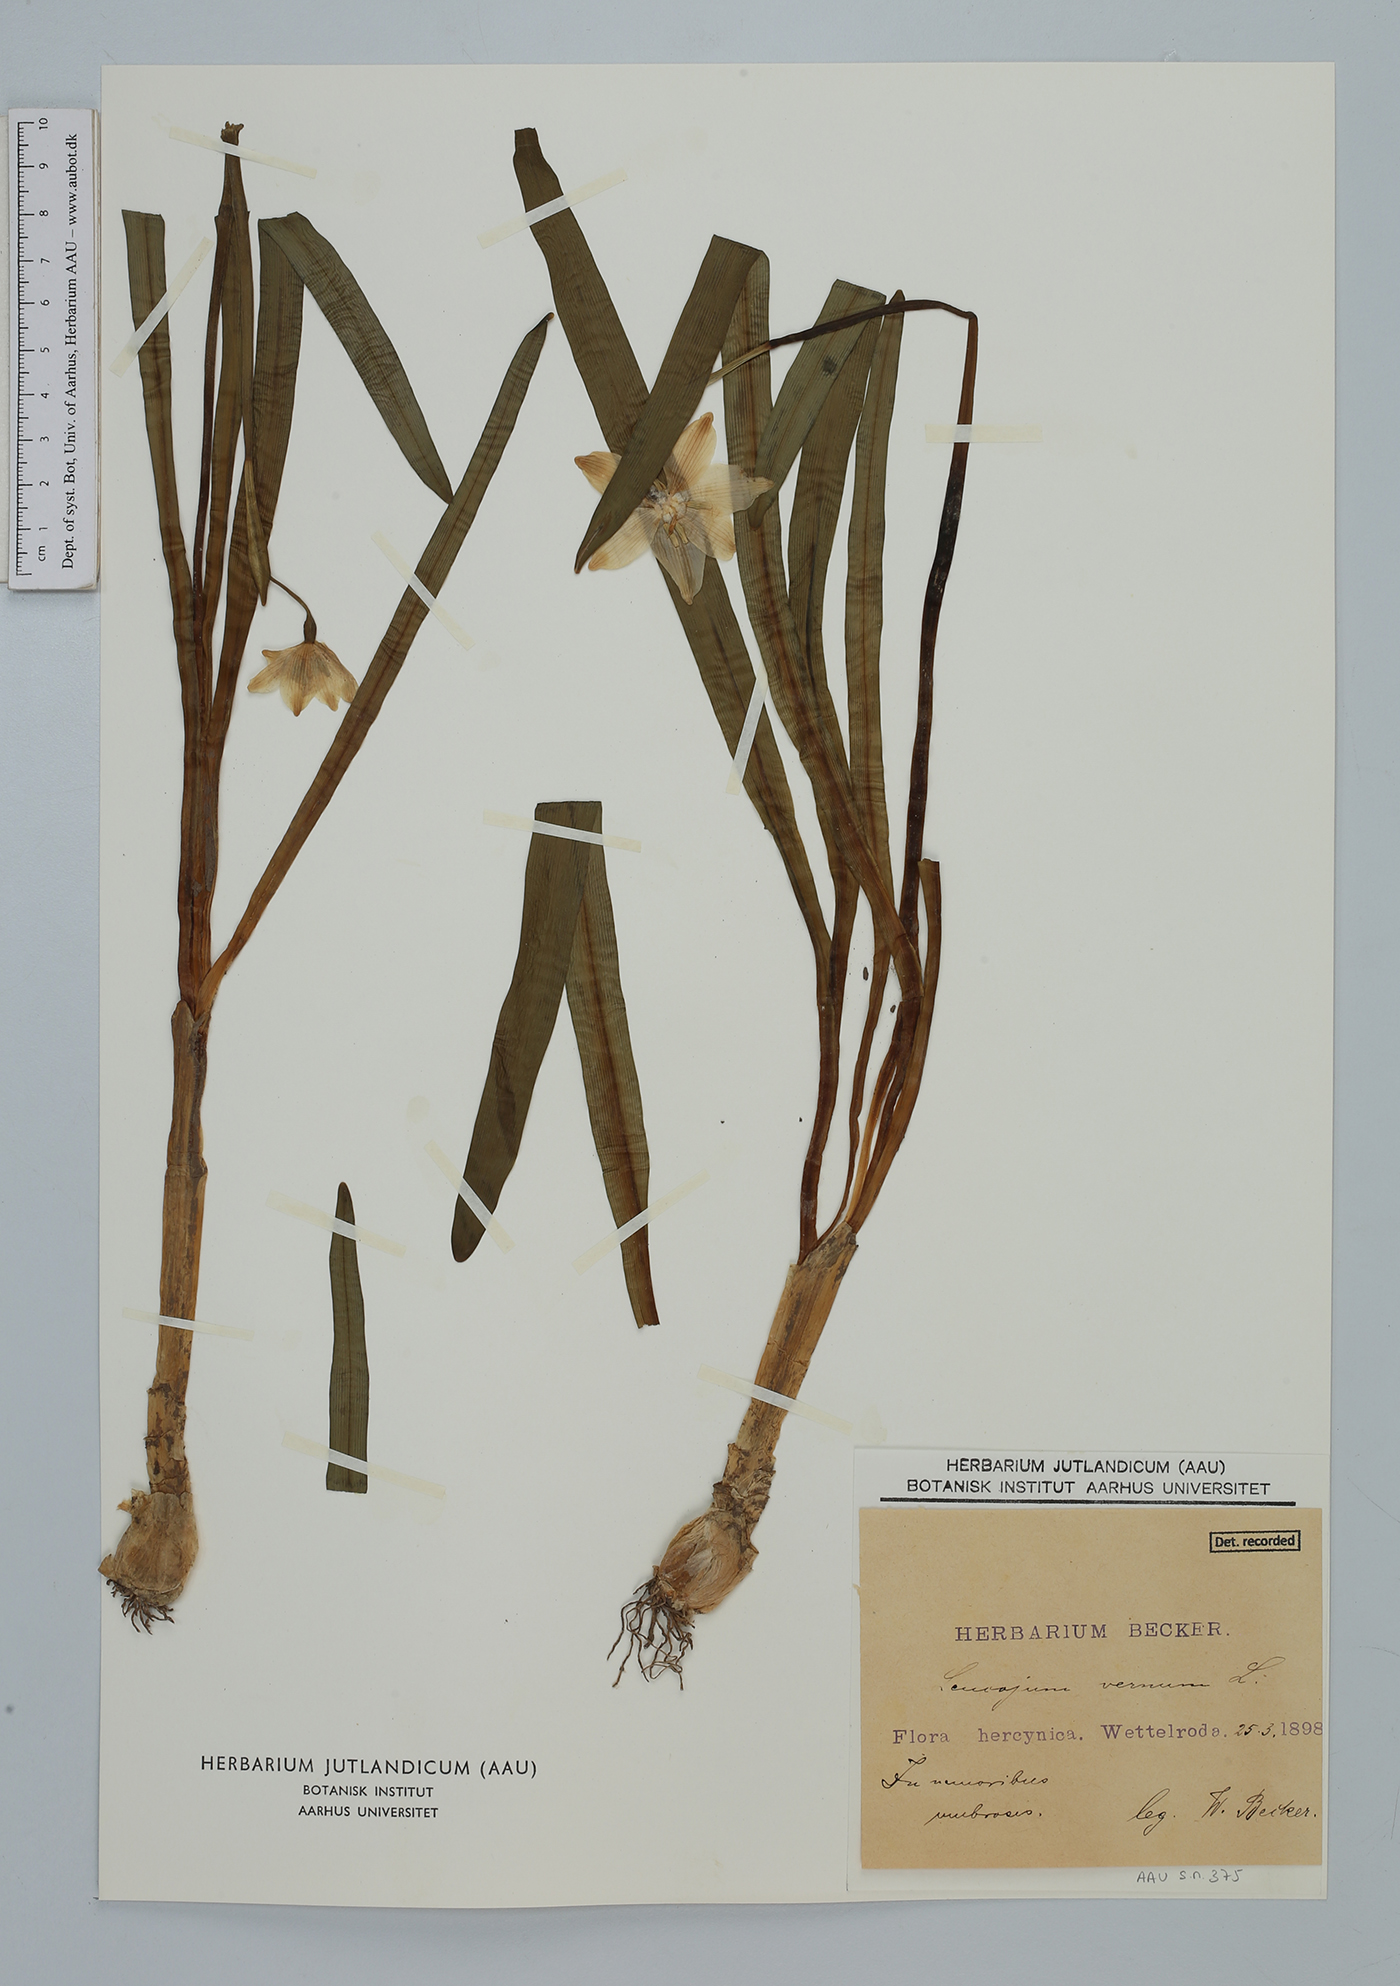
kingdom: Plantae
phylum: Tracheophyta
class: Liliopsida
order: Asparagales
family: Amaryllidaceae
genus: Leucojum
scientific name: Leucojum vernum
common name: Spring snowflake
